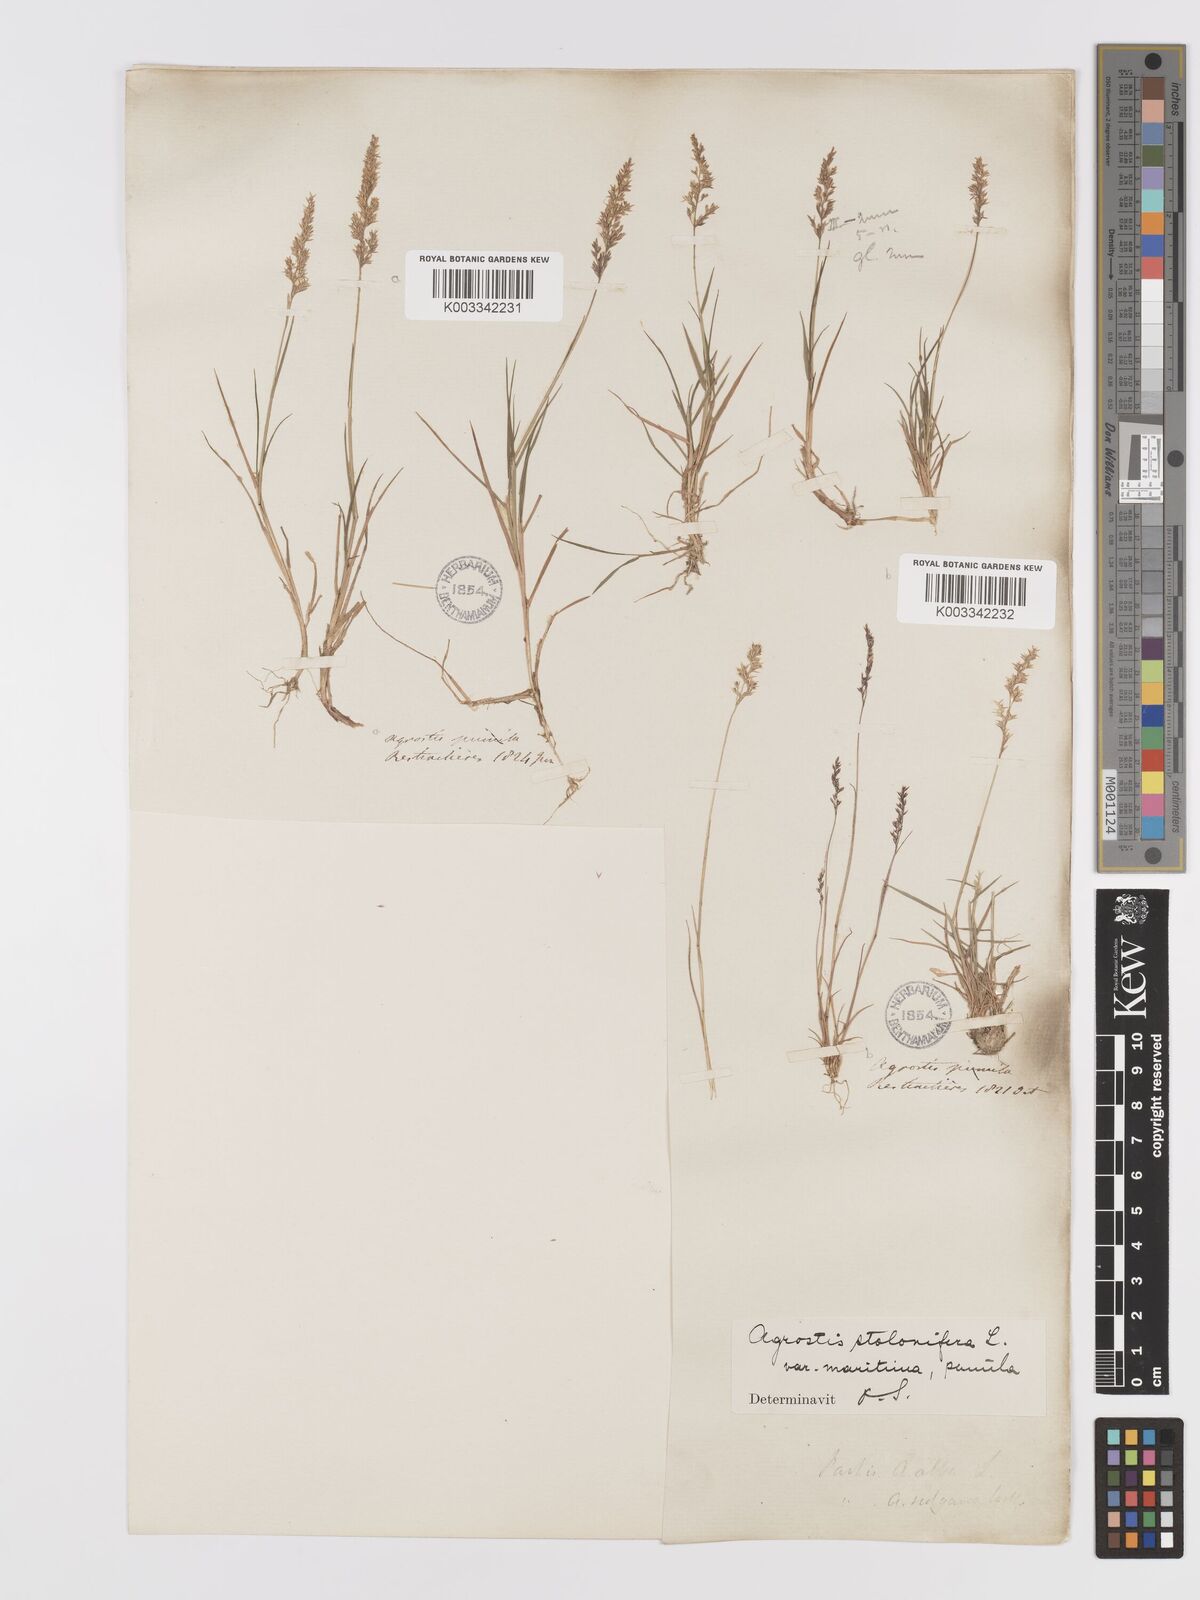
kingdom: Plantae
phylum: Tracheophyta
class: Liliopsida
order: Poales
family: Poaceae
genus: Agrostis
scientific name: Agrostis stolonifera
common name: Creeping bentgrass
